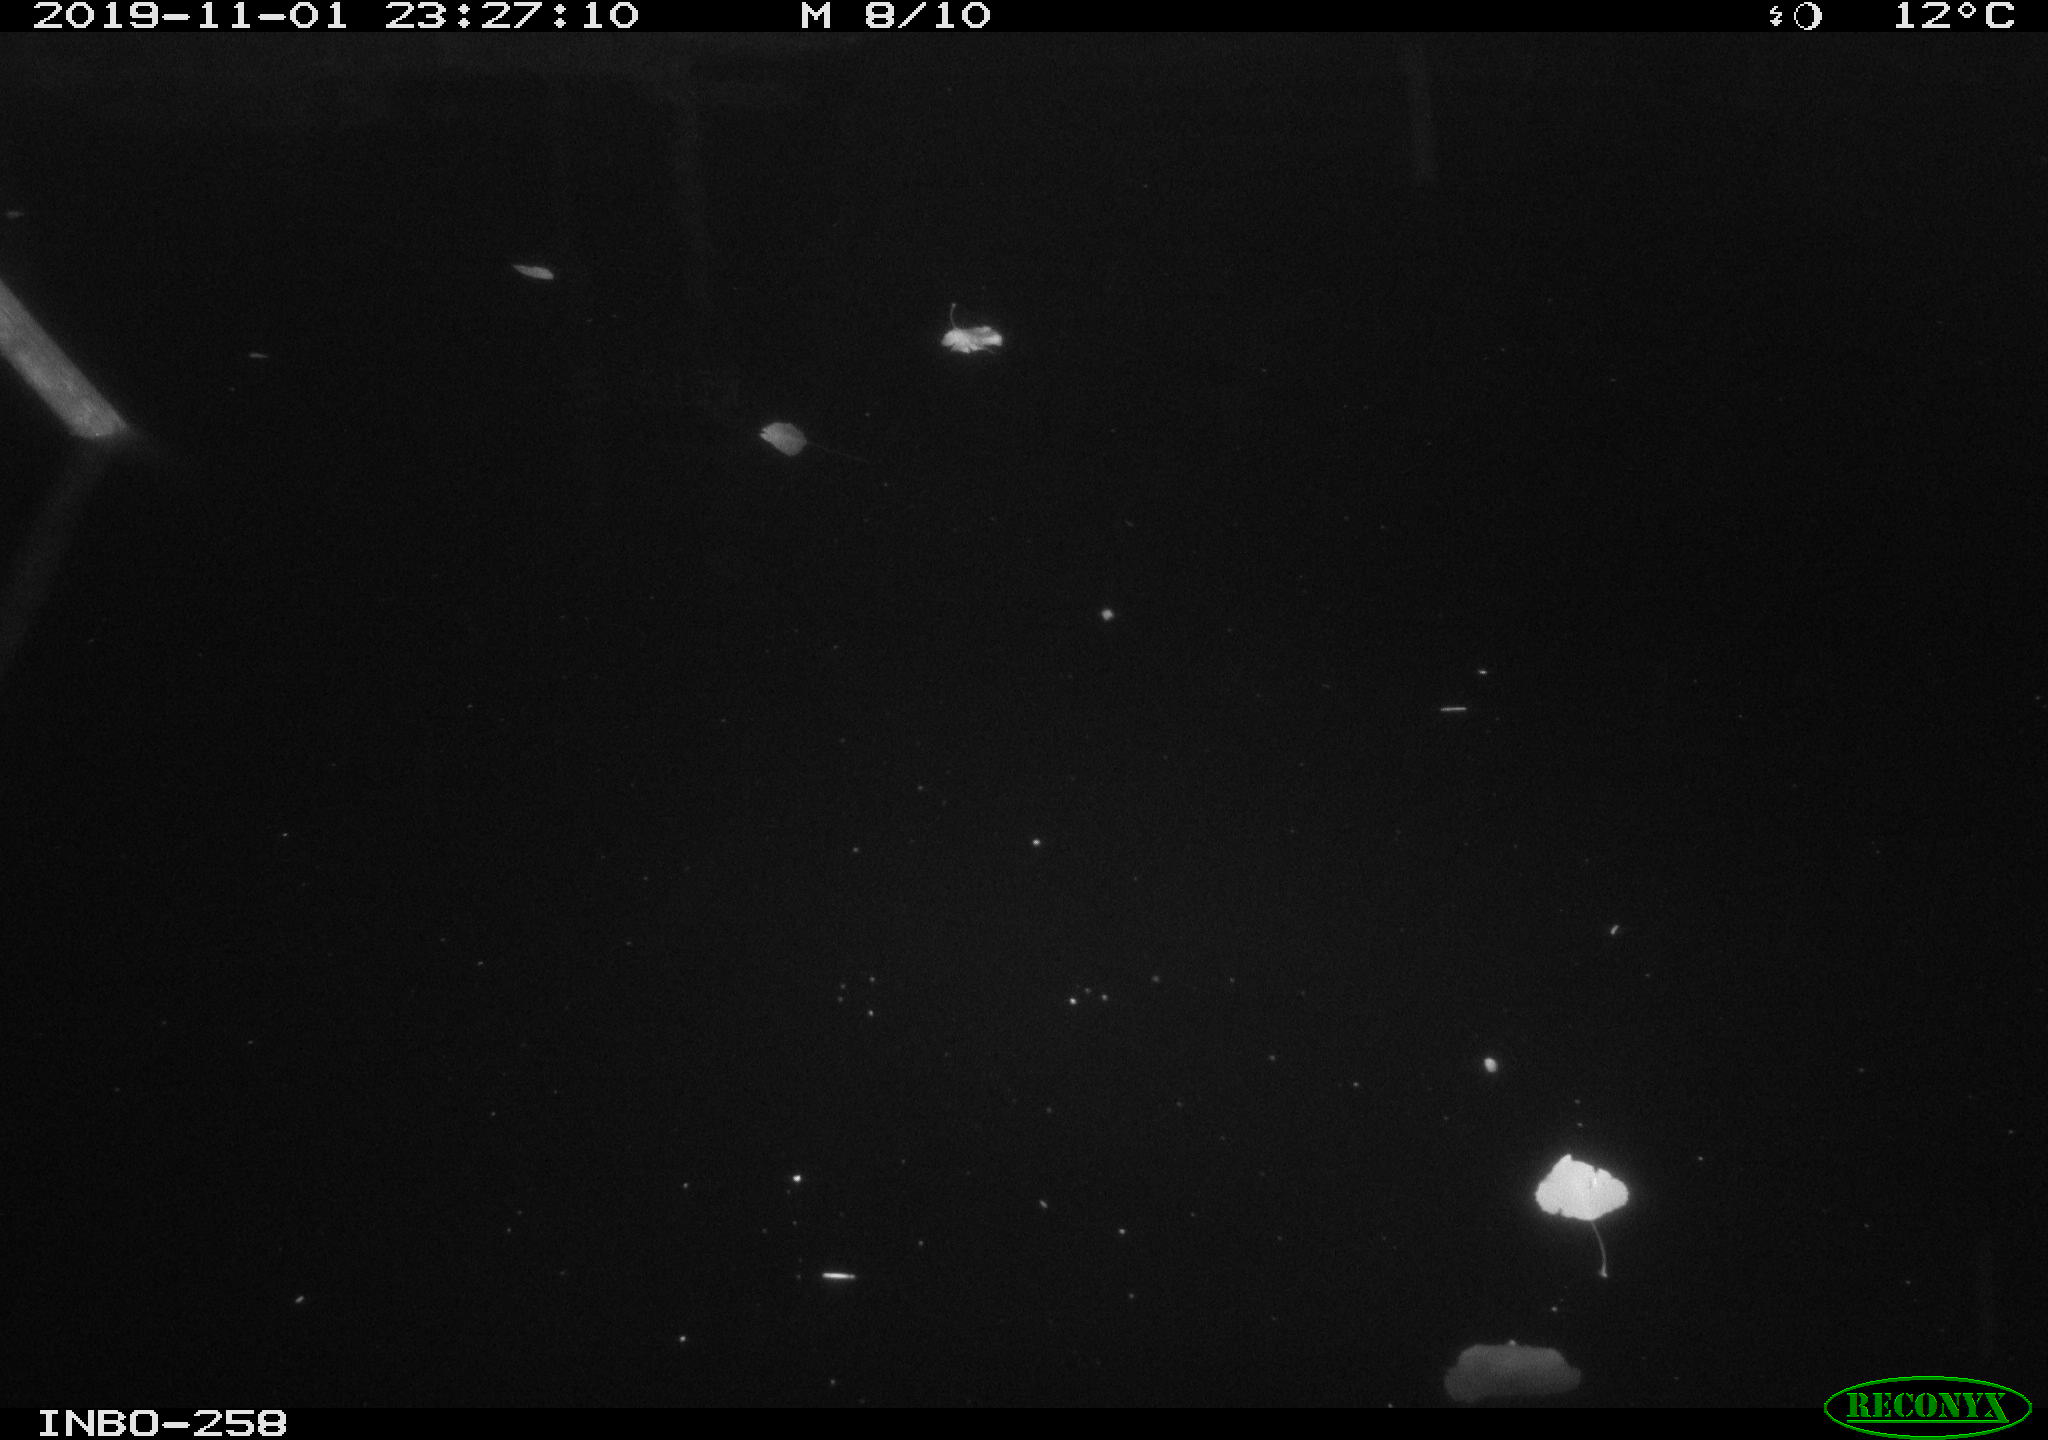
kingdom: Animalia
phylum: Chordata
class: Aves
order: Anseriformes
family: Anatidae
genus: Anas
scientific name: Anas platyrhynchos
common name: Mallard
